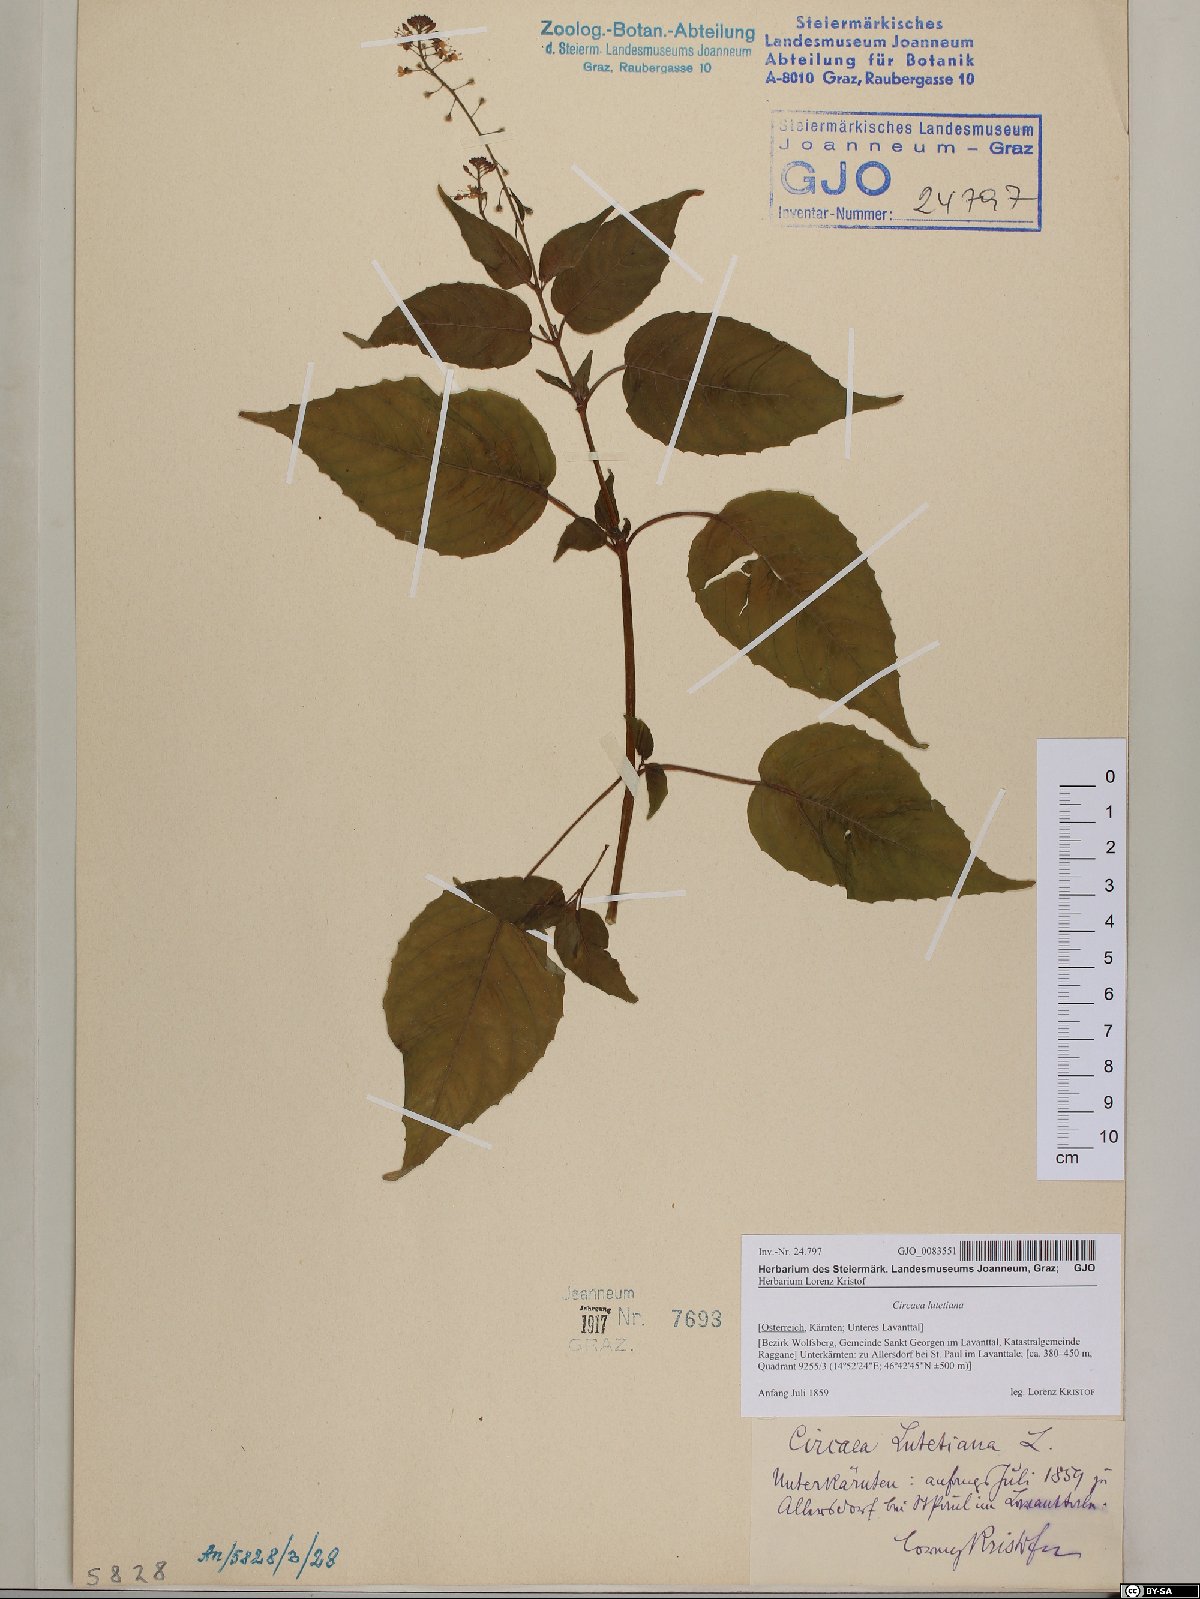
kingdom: Plantae
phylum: Tracheophyta
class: Magnoliopsida
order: Myrtales
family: Onagraceae
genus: Circaea
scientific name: Circaea lutetiana
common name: Enchanter's-nightshade
